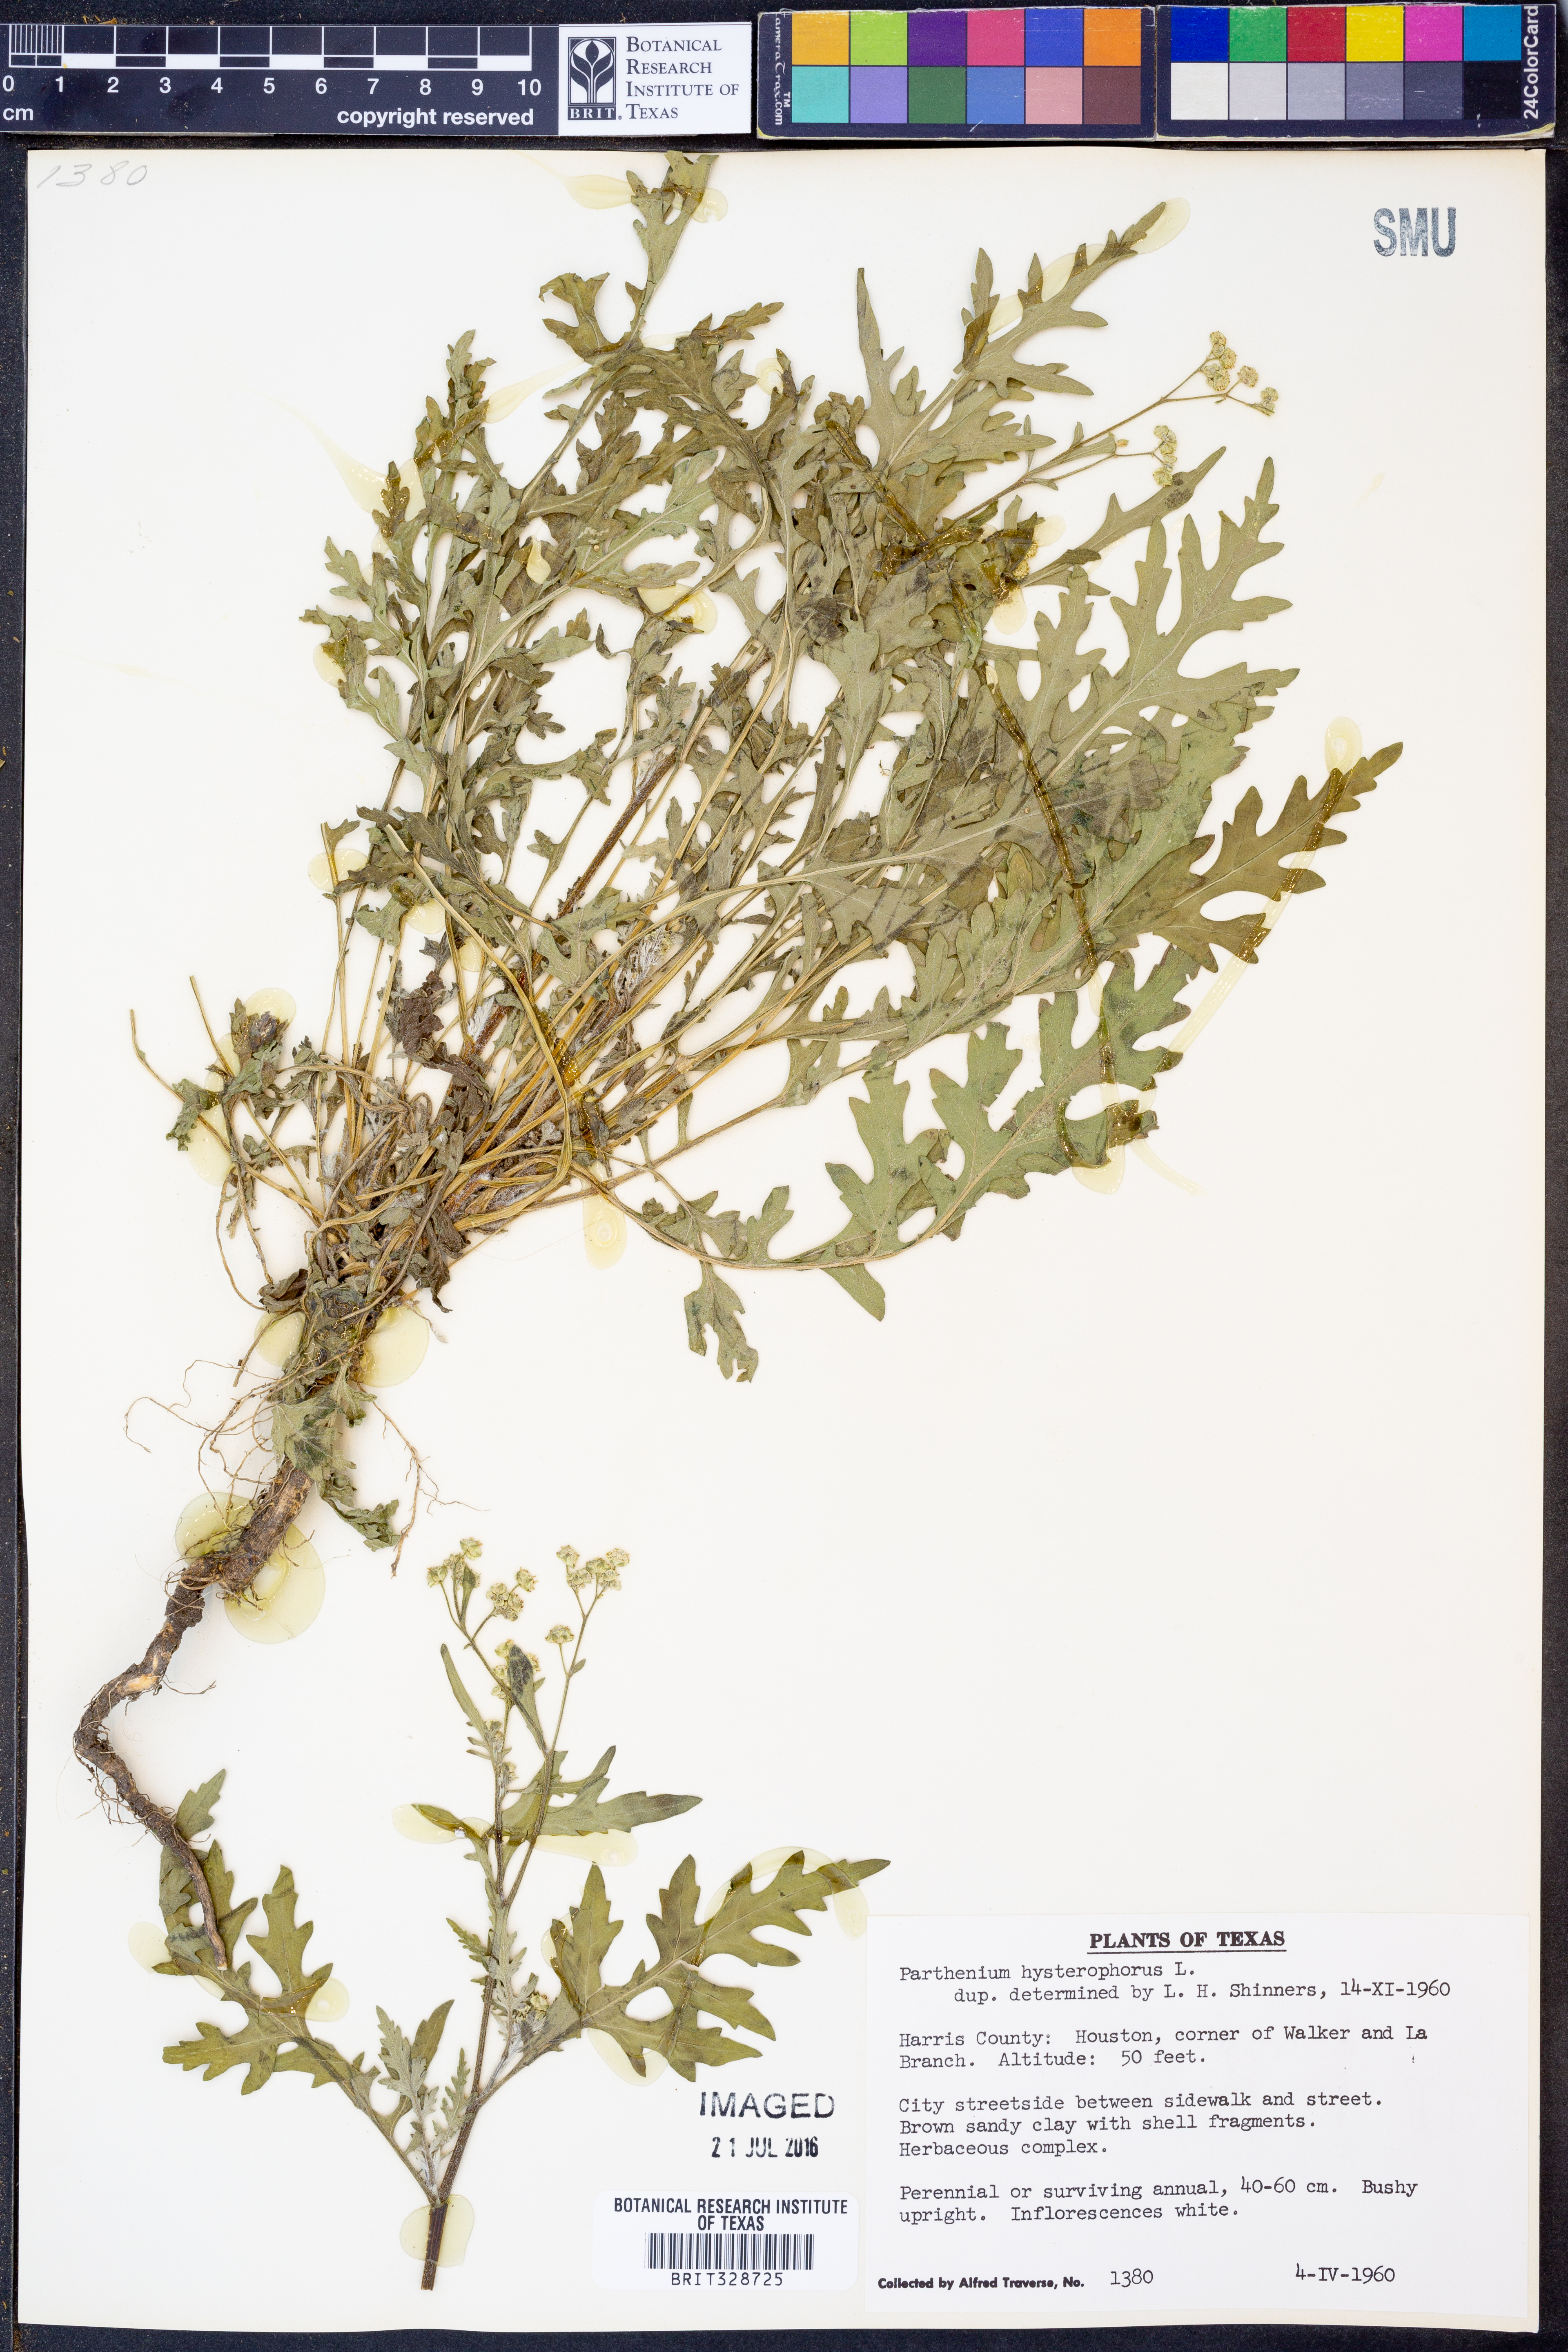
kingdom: Plantae
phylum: Tracheophyta
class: Magnoliopsida
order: Asterales
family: Asteraceae
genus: Parthenium
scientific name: Parthenium hysterophorus
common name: Santa maria feverfew
